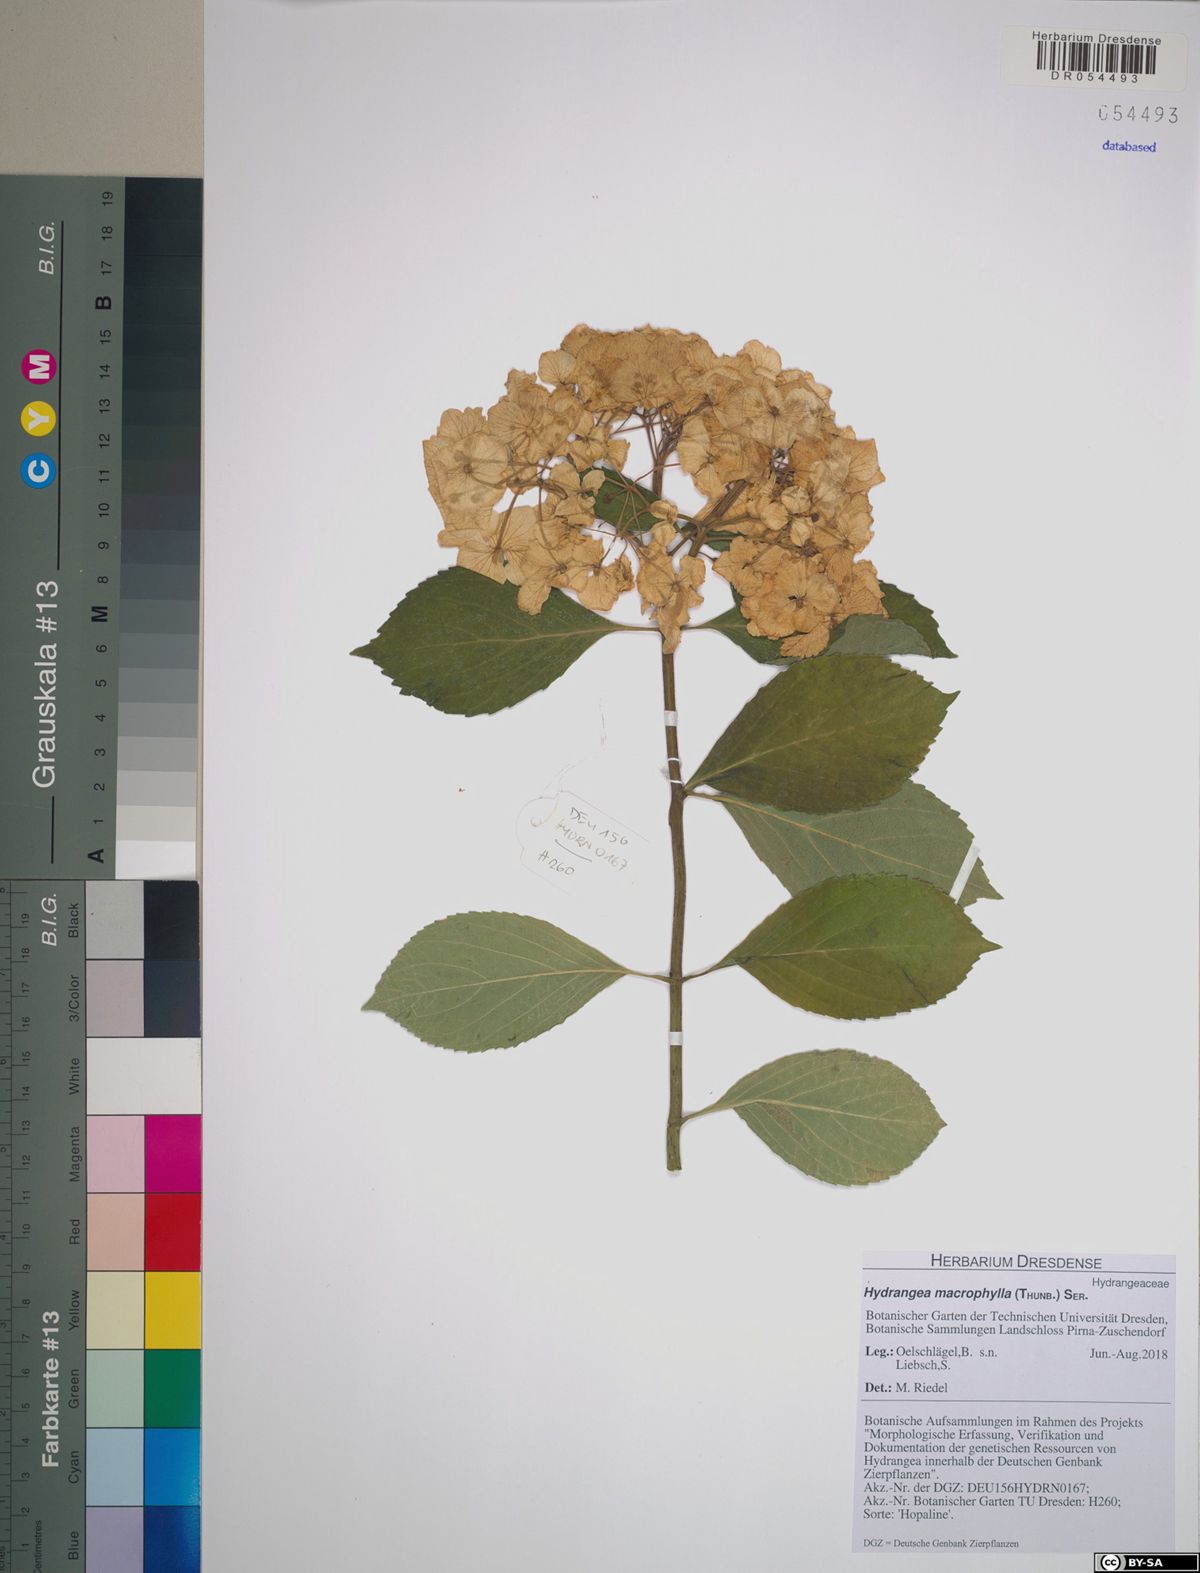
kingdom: Plantae
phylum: Tracheophyta
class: Magnoliopsida
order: Cornales
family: Hydrangeaceae
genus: Hydrangea
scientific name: Hydrangea macrophylla
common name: Hydrangea
